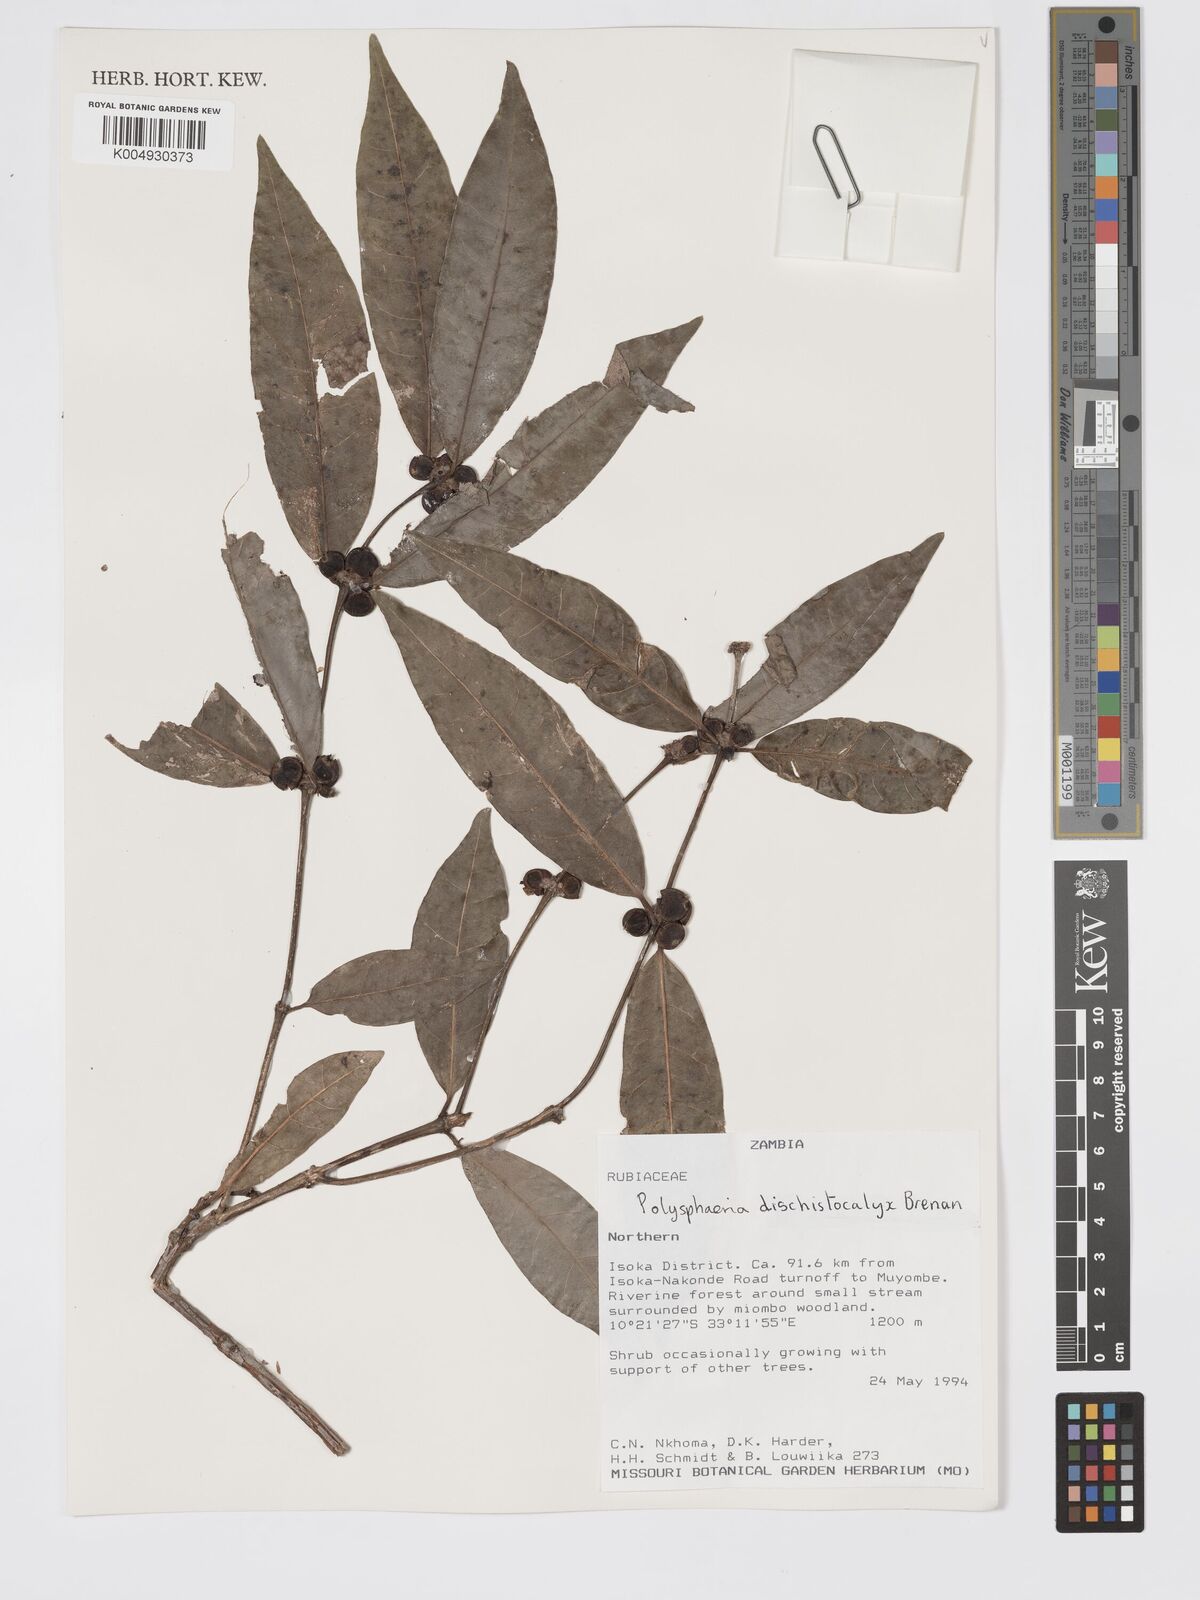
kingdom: Plantae
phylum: Tracheophyta
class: Magnoliopsida
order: Gentianales
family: Rubiaceae
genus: Polysphaeria
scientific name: Polysphaeria dischistocalyx
